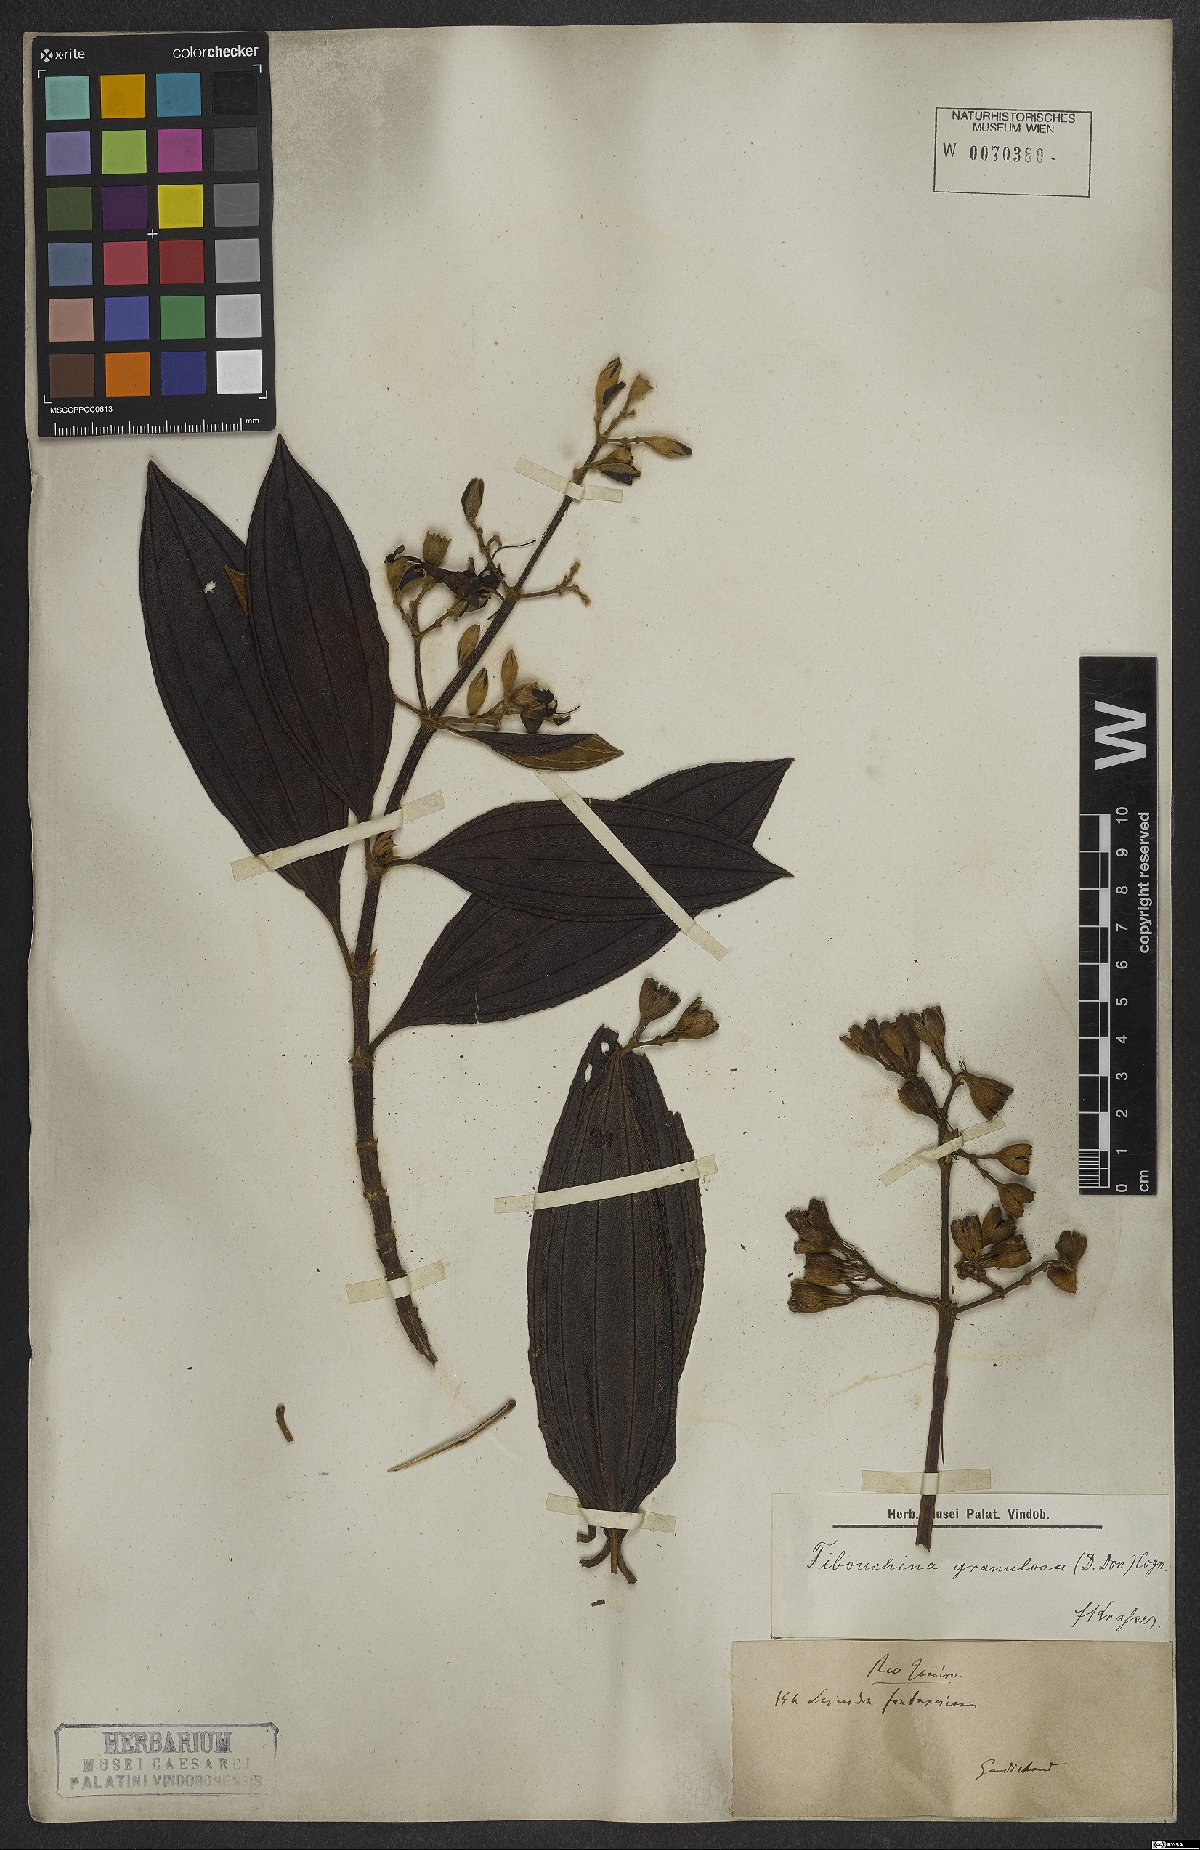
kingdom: Plantae
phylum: Tracheophyta
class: Magnoliopsida
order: Myrtales
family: Melastomataceae
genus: Pleroma
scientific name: Pleroma granulosum
